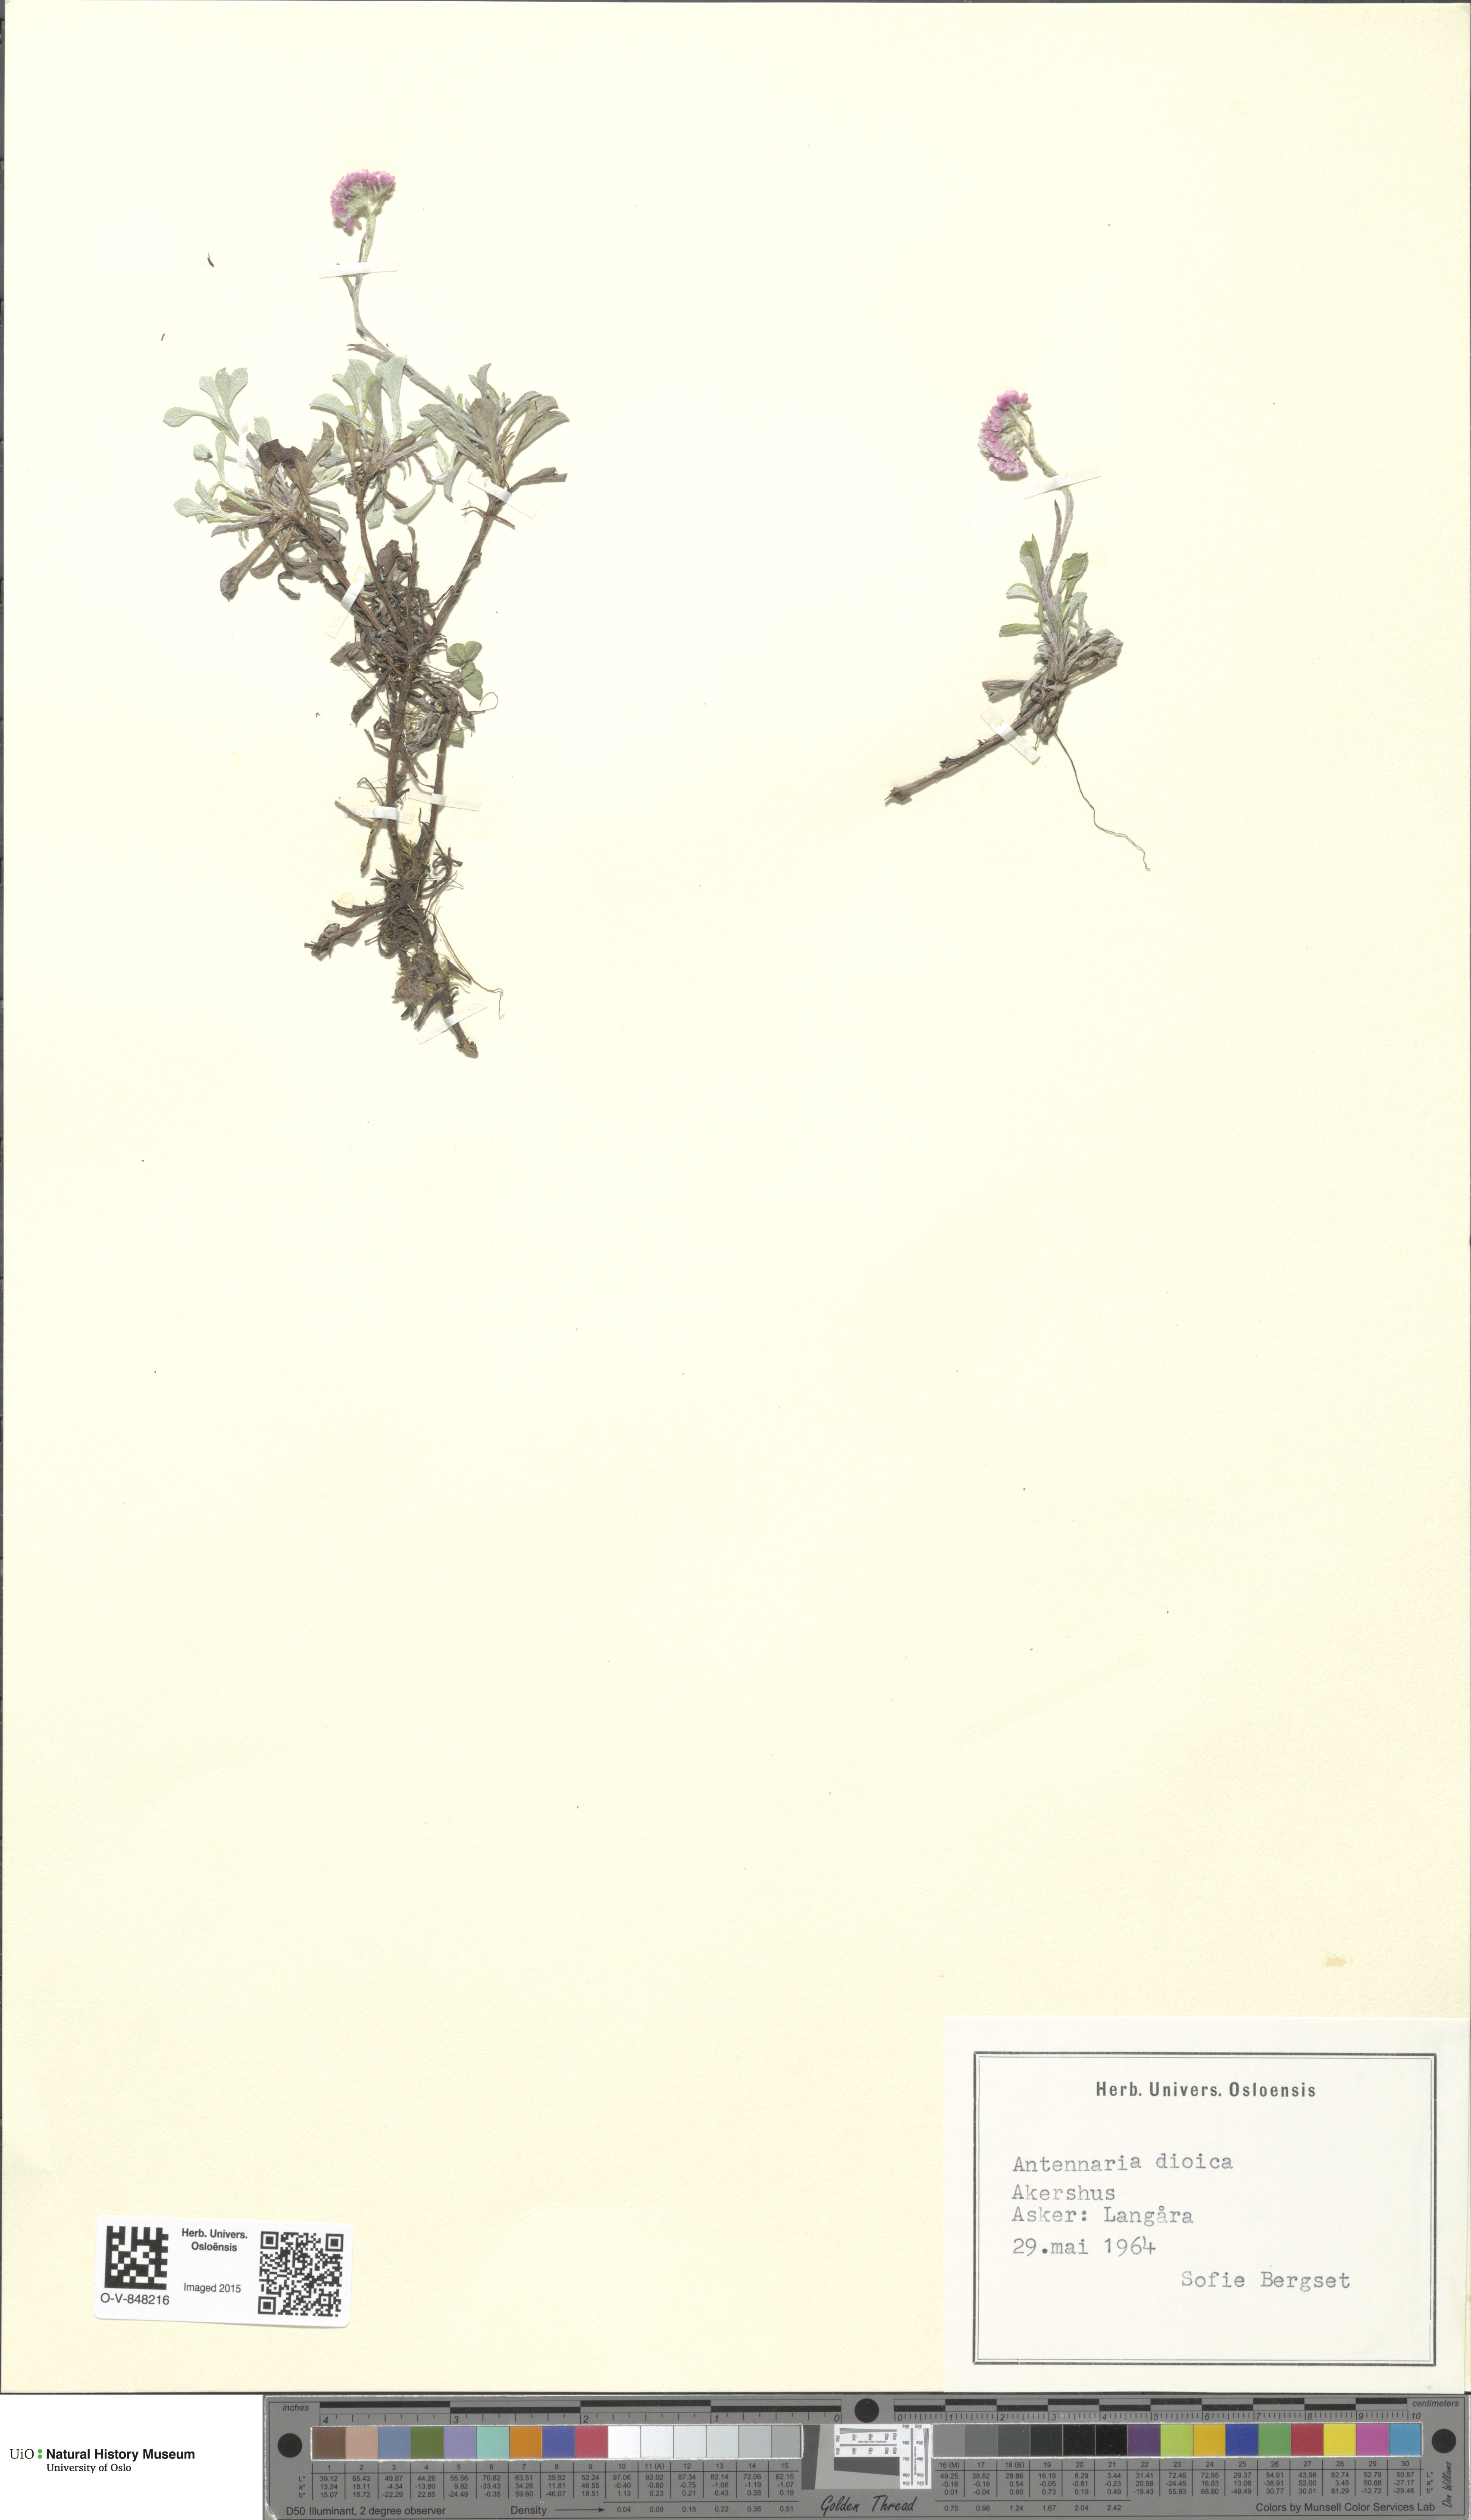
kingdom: Plantae
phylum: Tracheophyta
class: Magnoliopsida
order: Asterales
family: Asteraceae
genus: Antennaria
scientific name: Antennaria dioica
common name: Mountain everlasting
